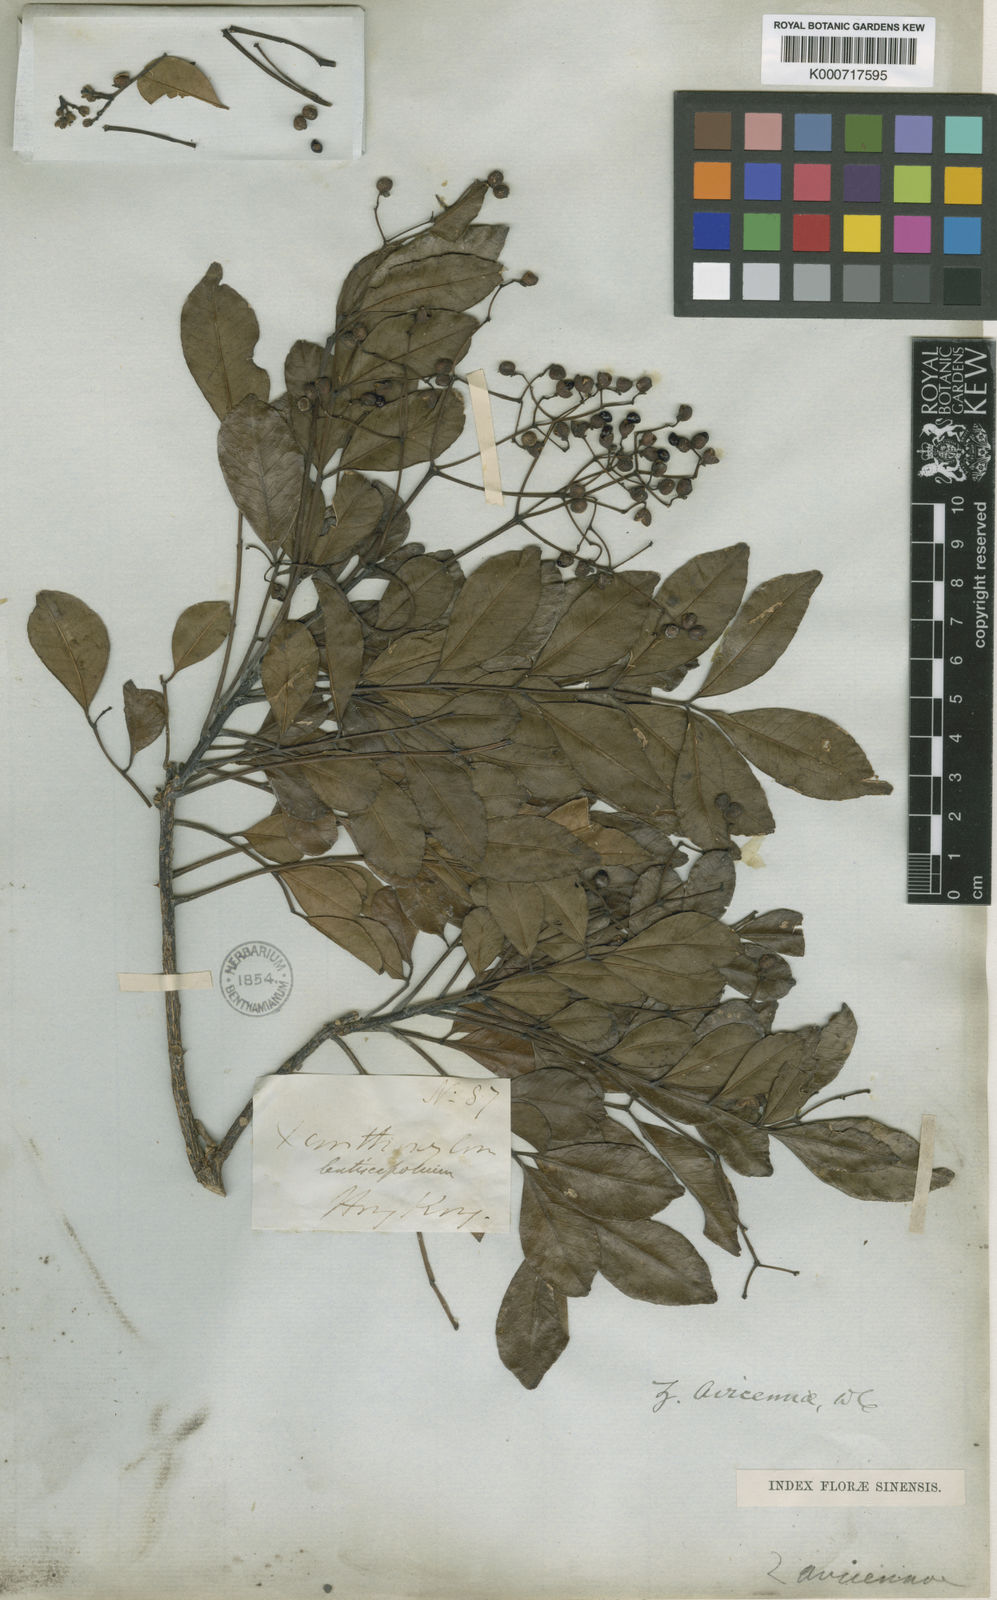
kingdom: Plantae
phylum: Tracheophyta
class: Magnoliopsida
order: Sapindales
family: Rutaceae
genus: Zanthoxylum
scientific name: Zanthoxylum avicennae
